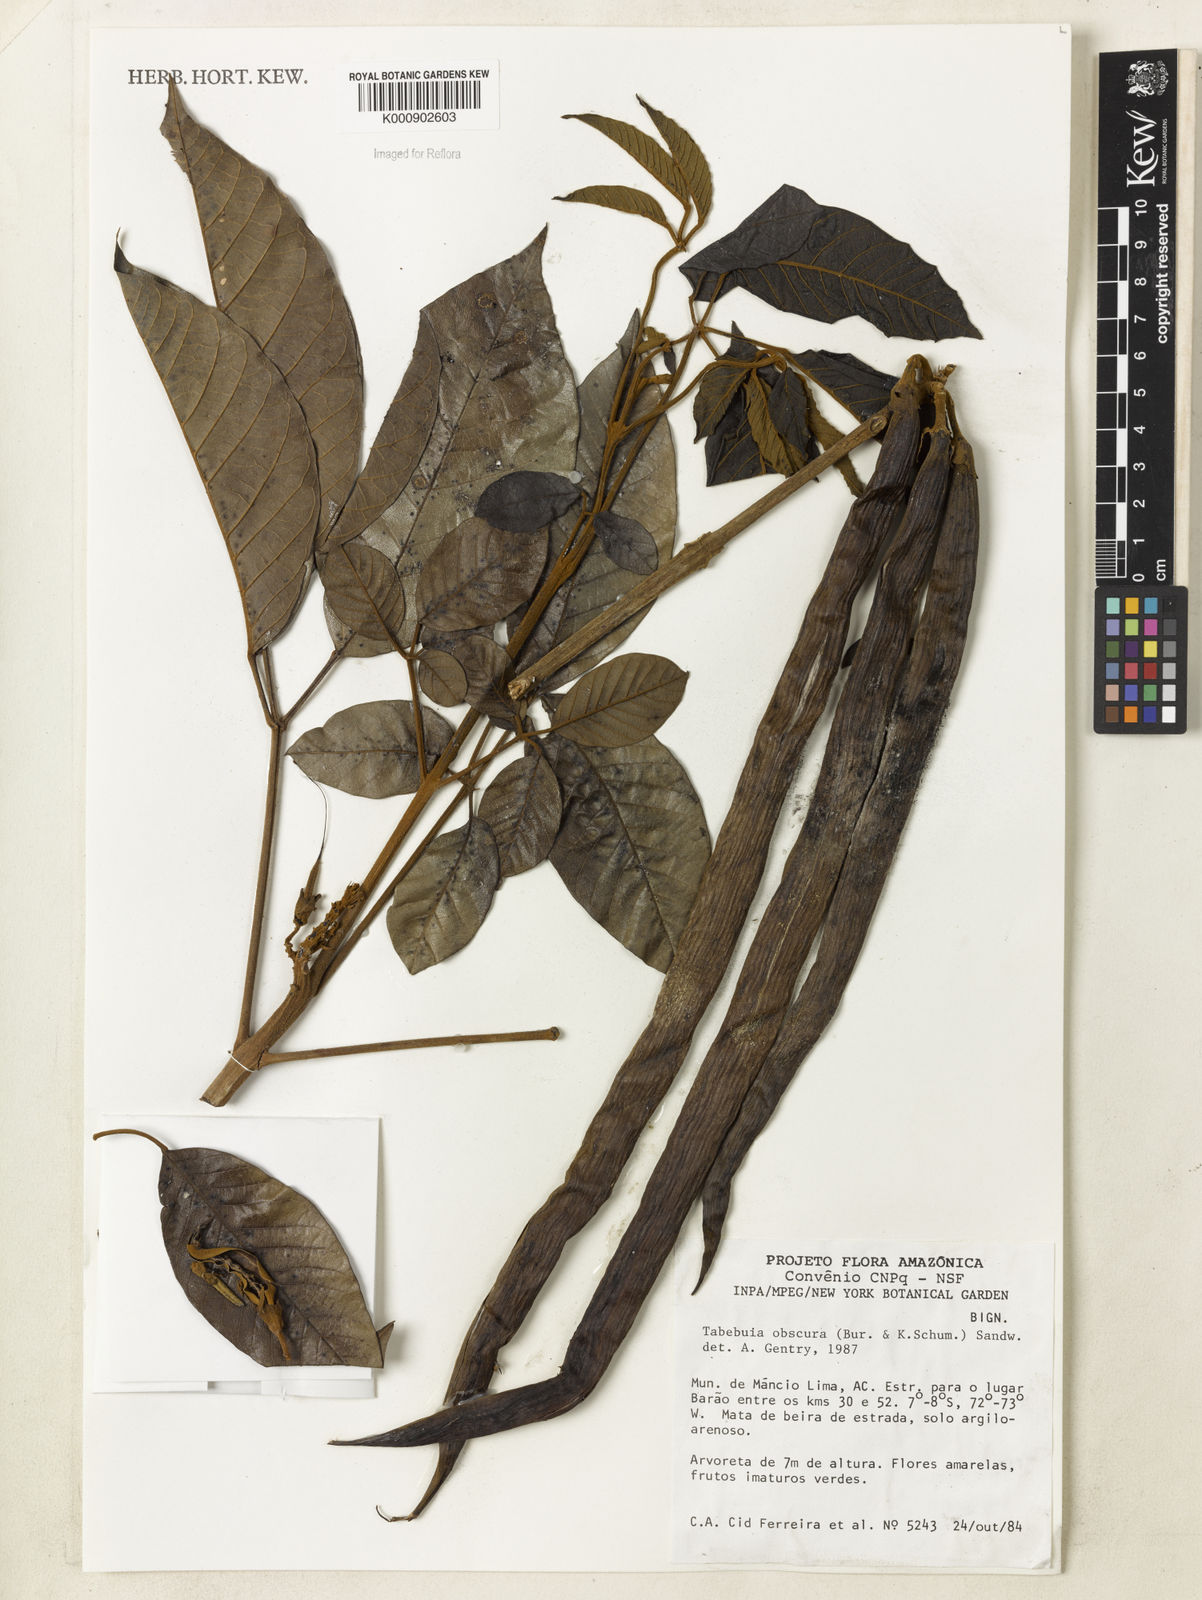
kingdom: Plantae
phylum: Tracheophyta
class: Magnoliopsida
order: Lamiales
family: Bignoniaceae
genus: Handroanthus
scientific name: Handroanthus obscurus
